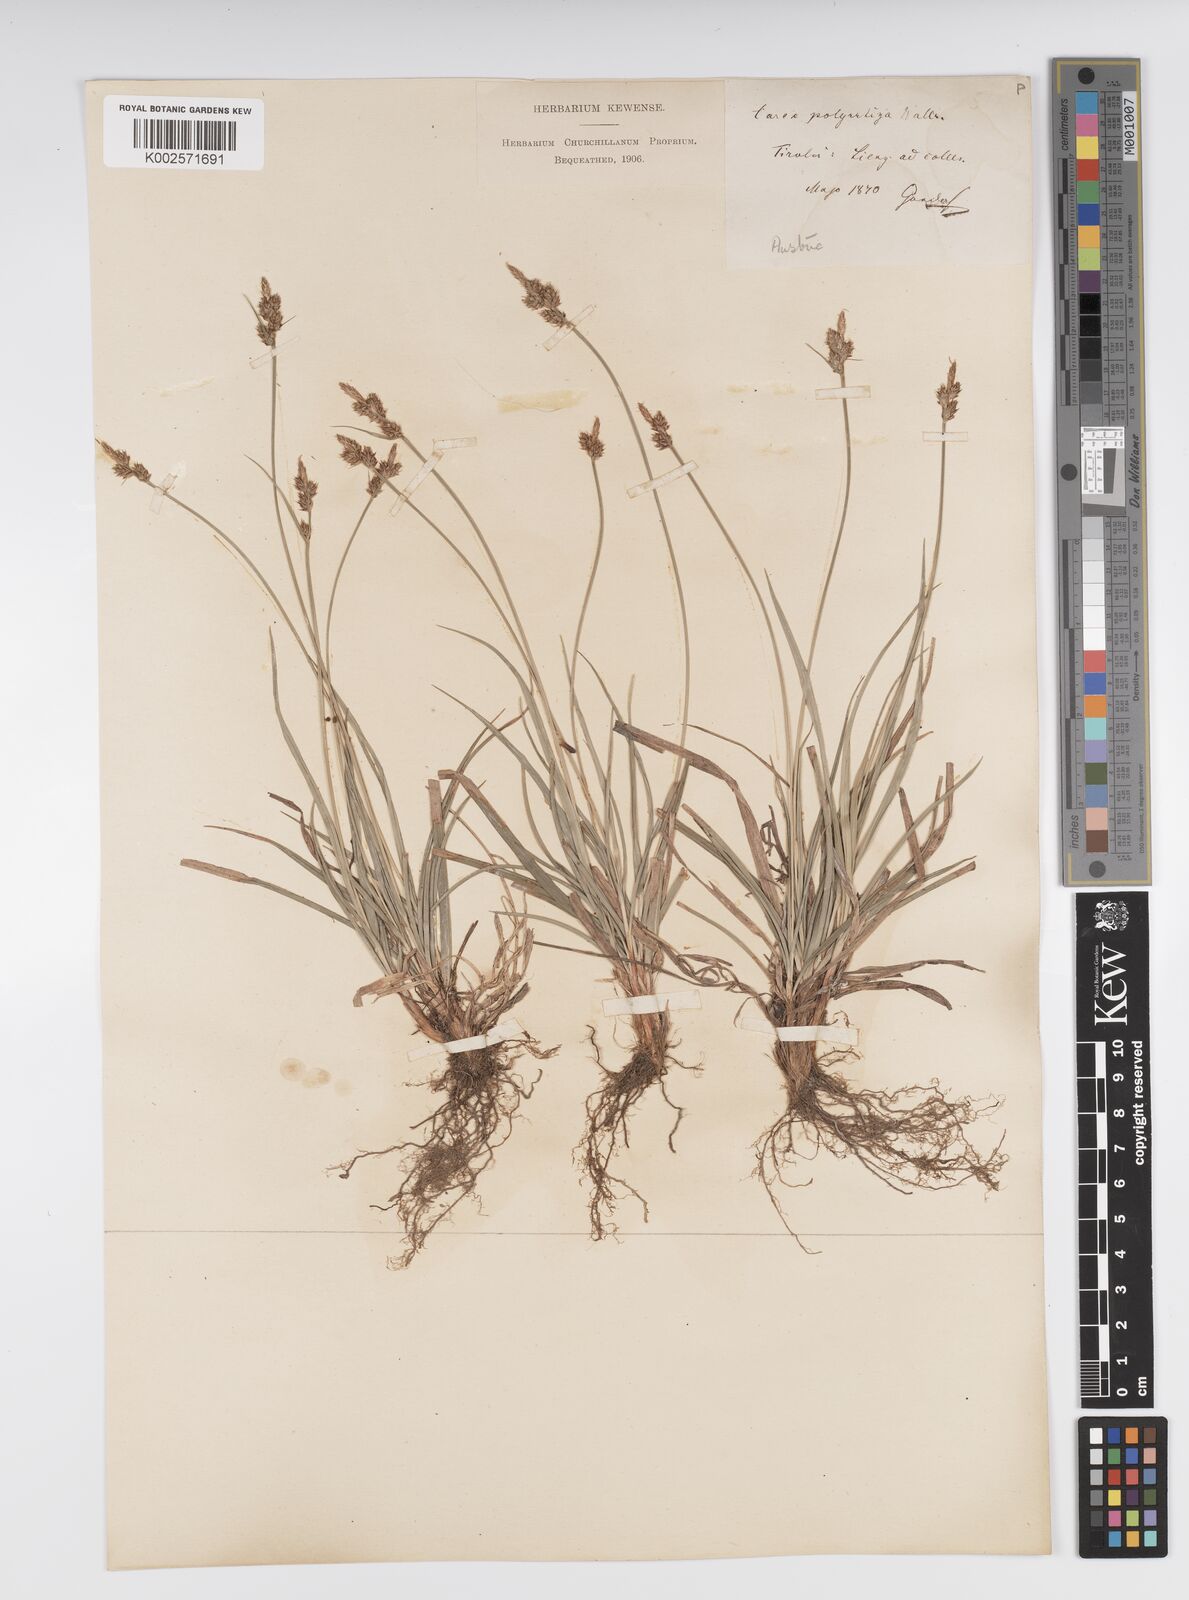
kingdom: Plantae
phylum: Tracheophyta
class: Liliopsida
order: Poales
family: Cyperaceae
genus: Carex
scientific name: Carex caryophyllea
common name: Spring sedge
